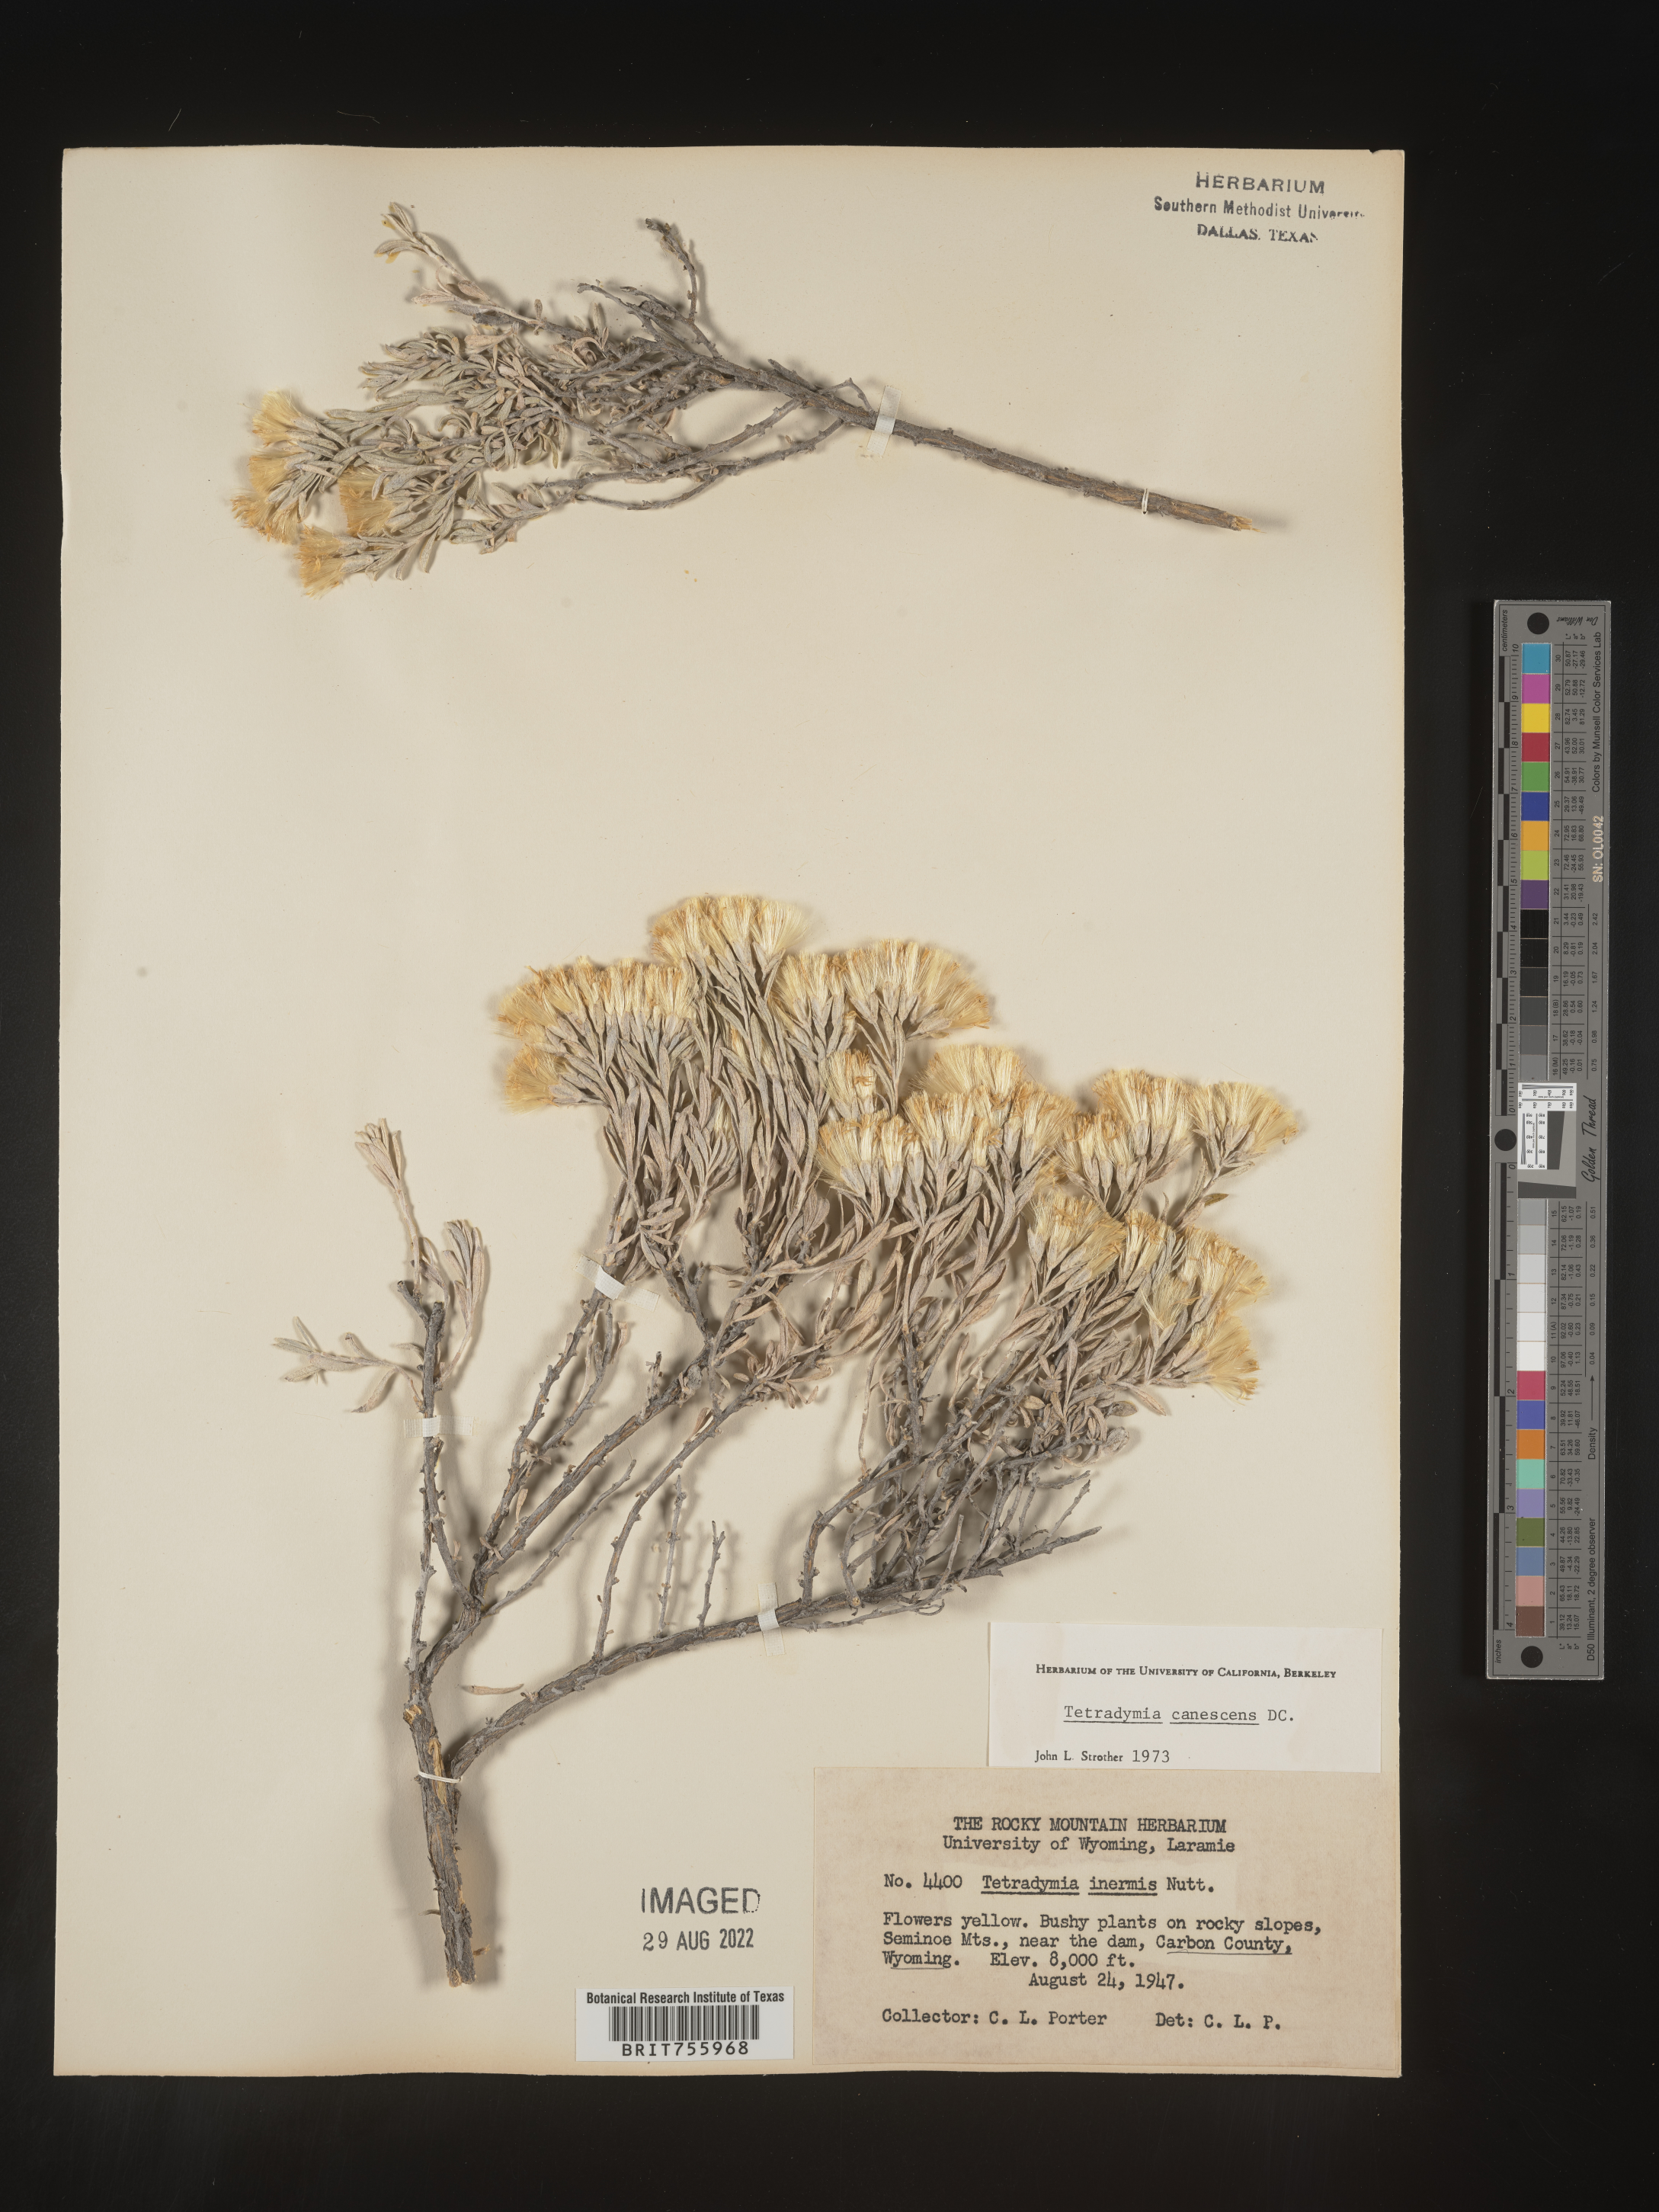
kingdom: Plantae
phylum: Tracheophyta
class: Magnoliopsida
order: Asterales
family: Asteraceae
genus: Tetradymia
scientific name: Tetradymia canescens
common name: Spineless horsebrush
